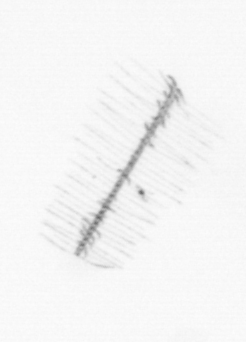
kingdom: Chromista
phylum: Ochrophyta
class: Bacillariophyceae
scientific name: Bacillariophyceae
